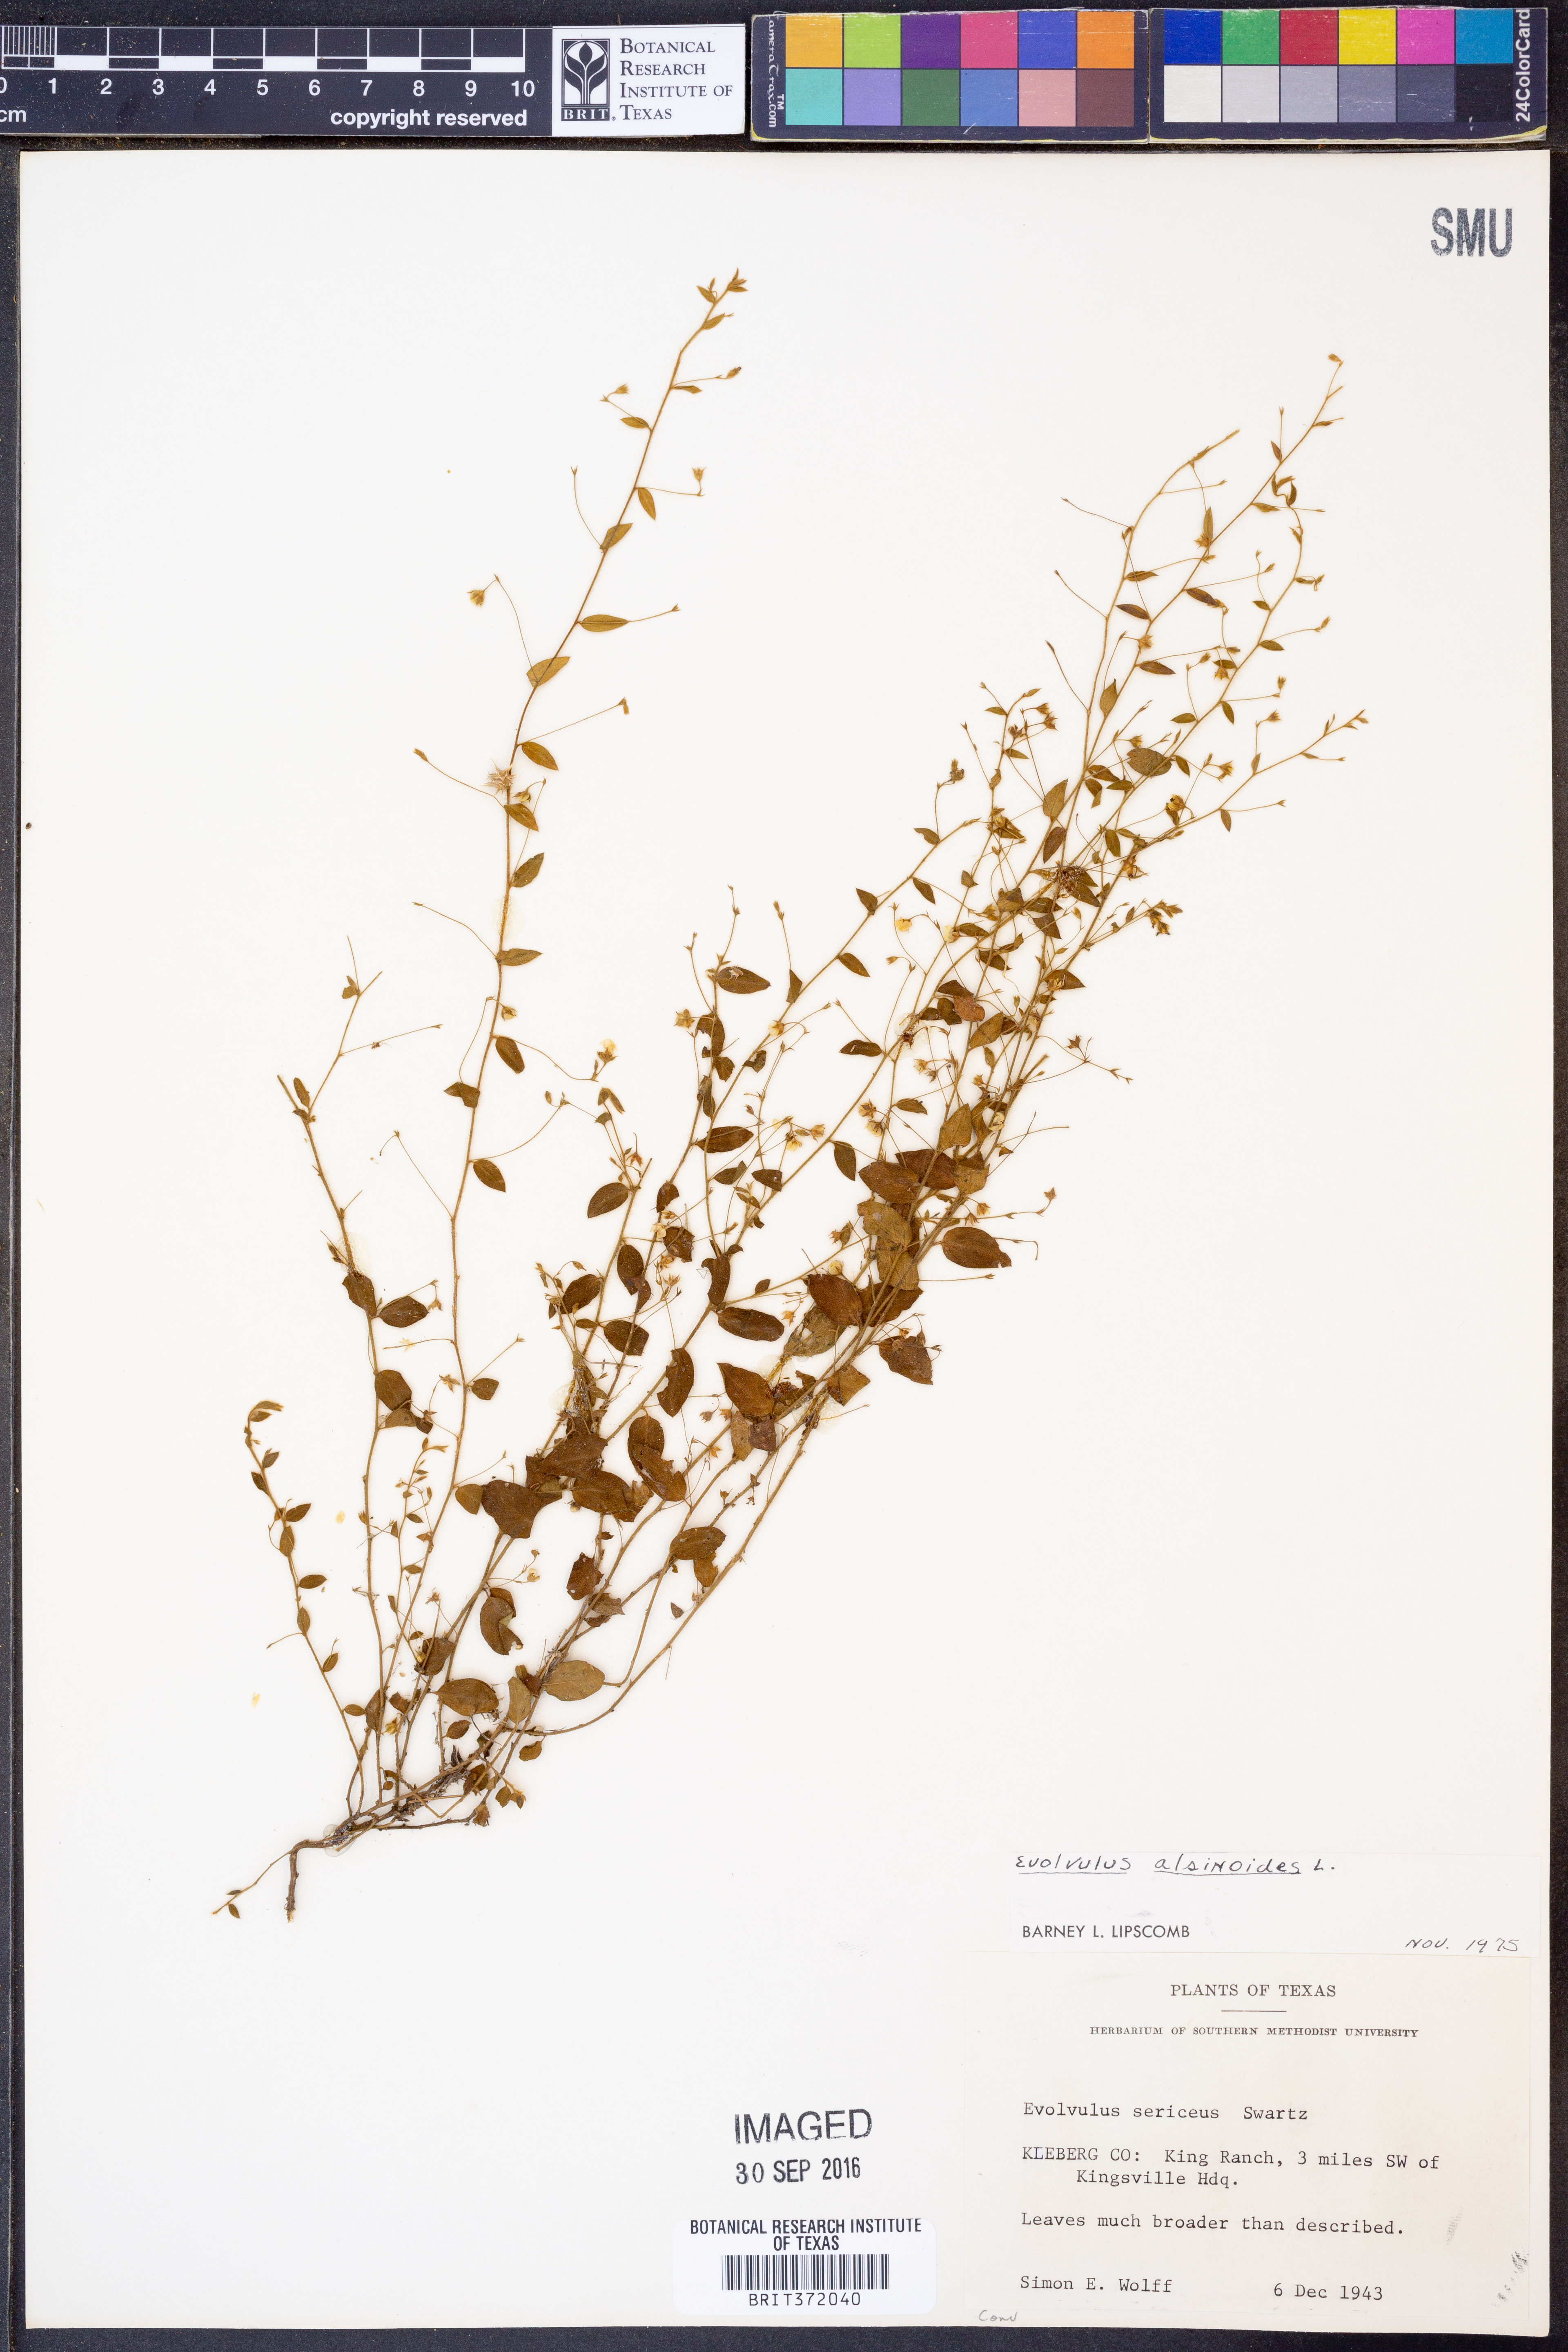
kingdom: Plantae
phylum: Tracheophyta
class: Magnoliopsida
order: Solanales
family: Convolvulaceae
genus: Evolvulus
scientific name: Evolvulus alsinoides
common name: Slender dwarf morning-glory
